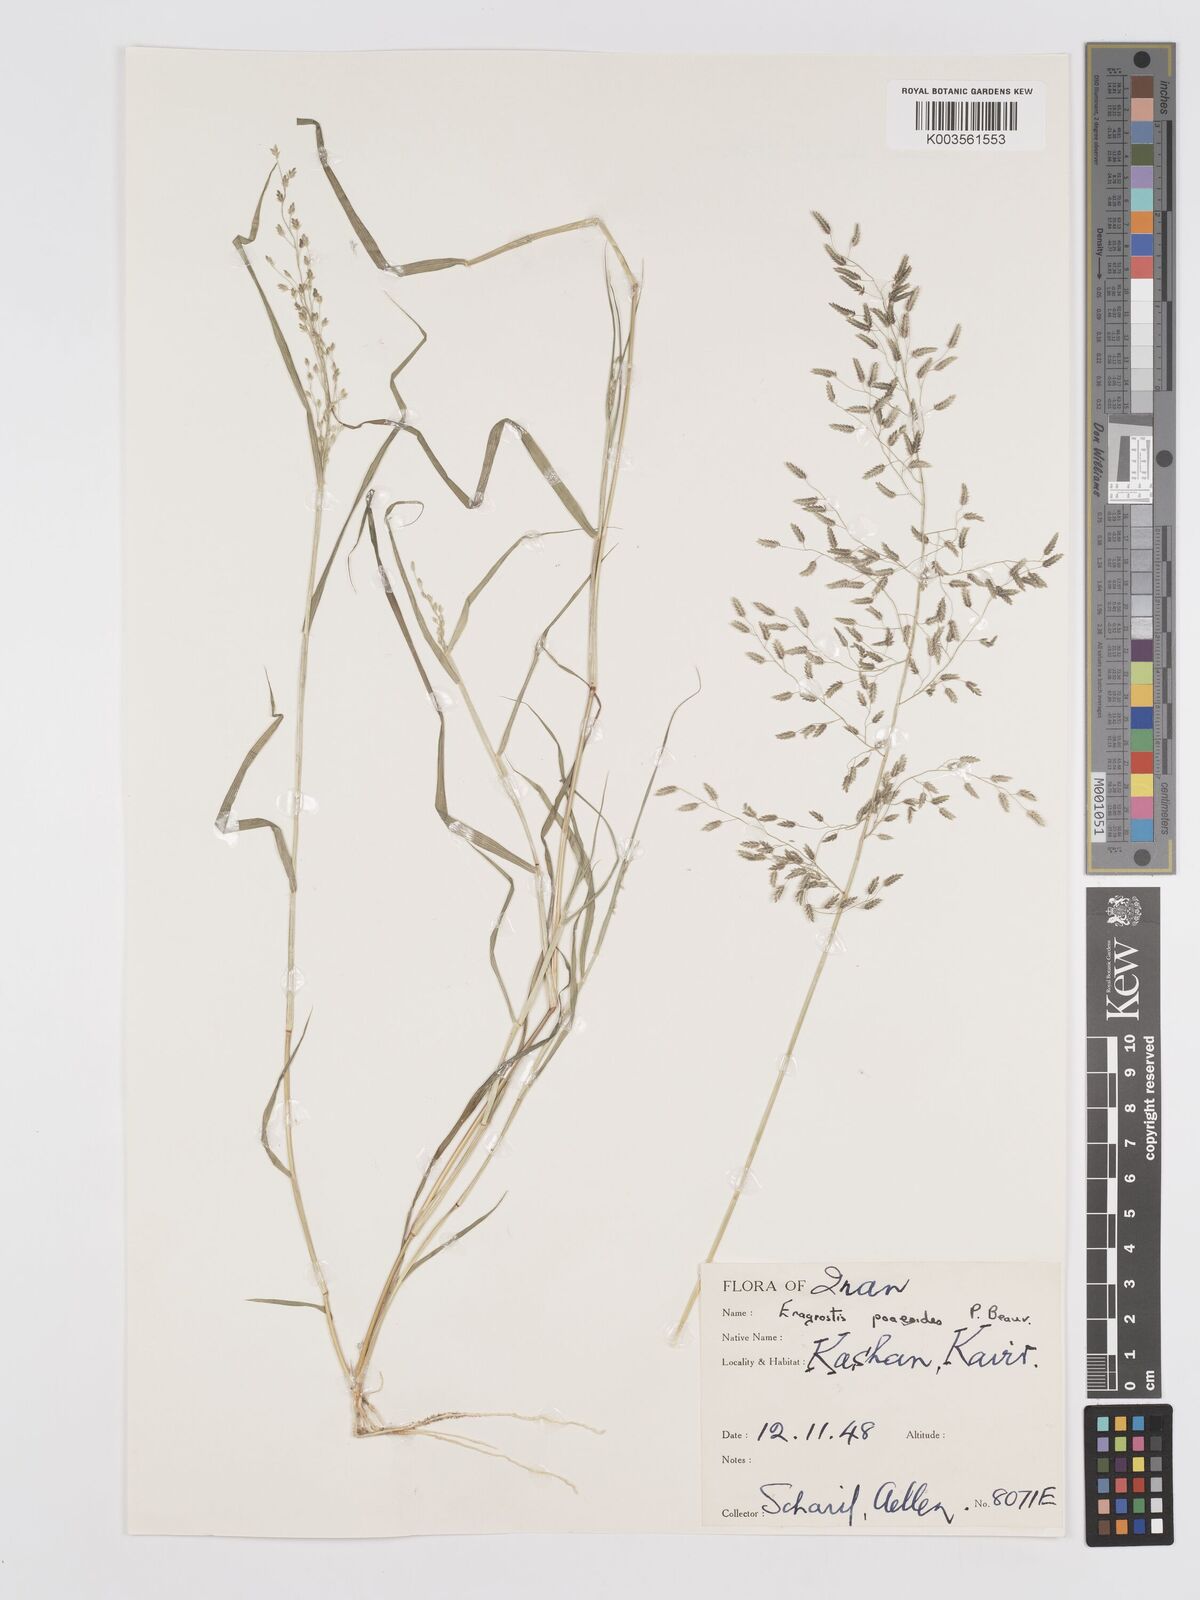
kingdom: Plantae
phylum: Tracheophyta
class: Liliopsida
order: Poales
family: Poaceae
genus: Eragrostis
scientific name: Eragrostis minor
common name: Small love-grass
